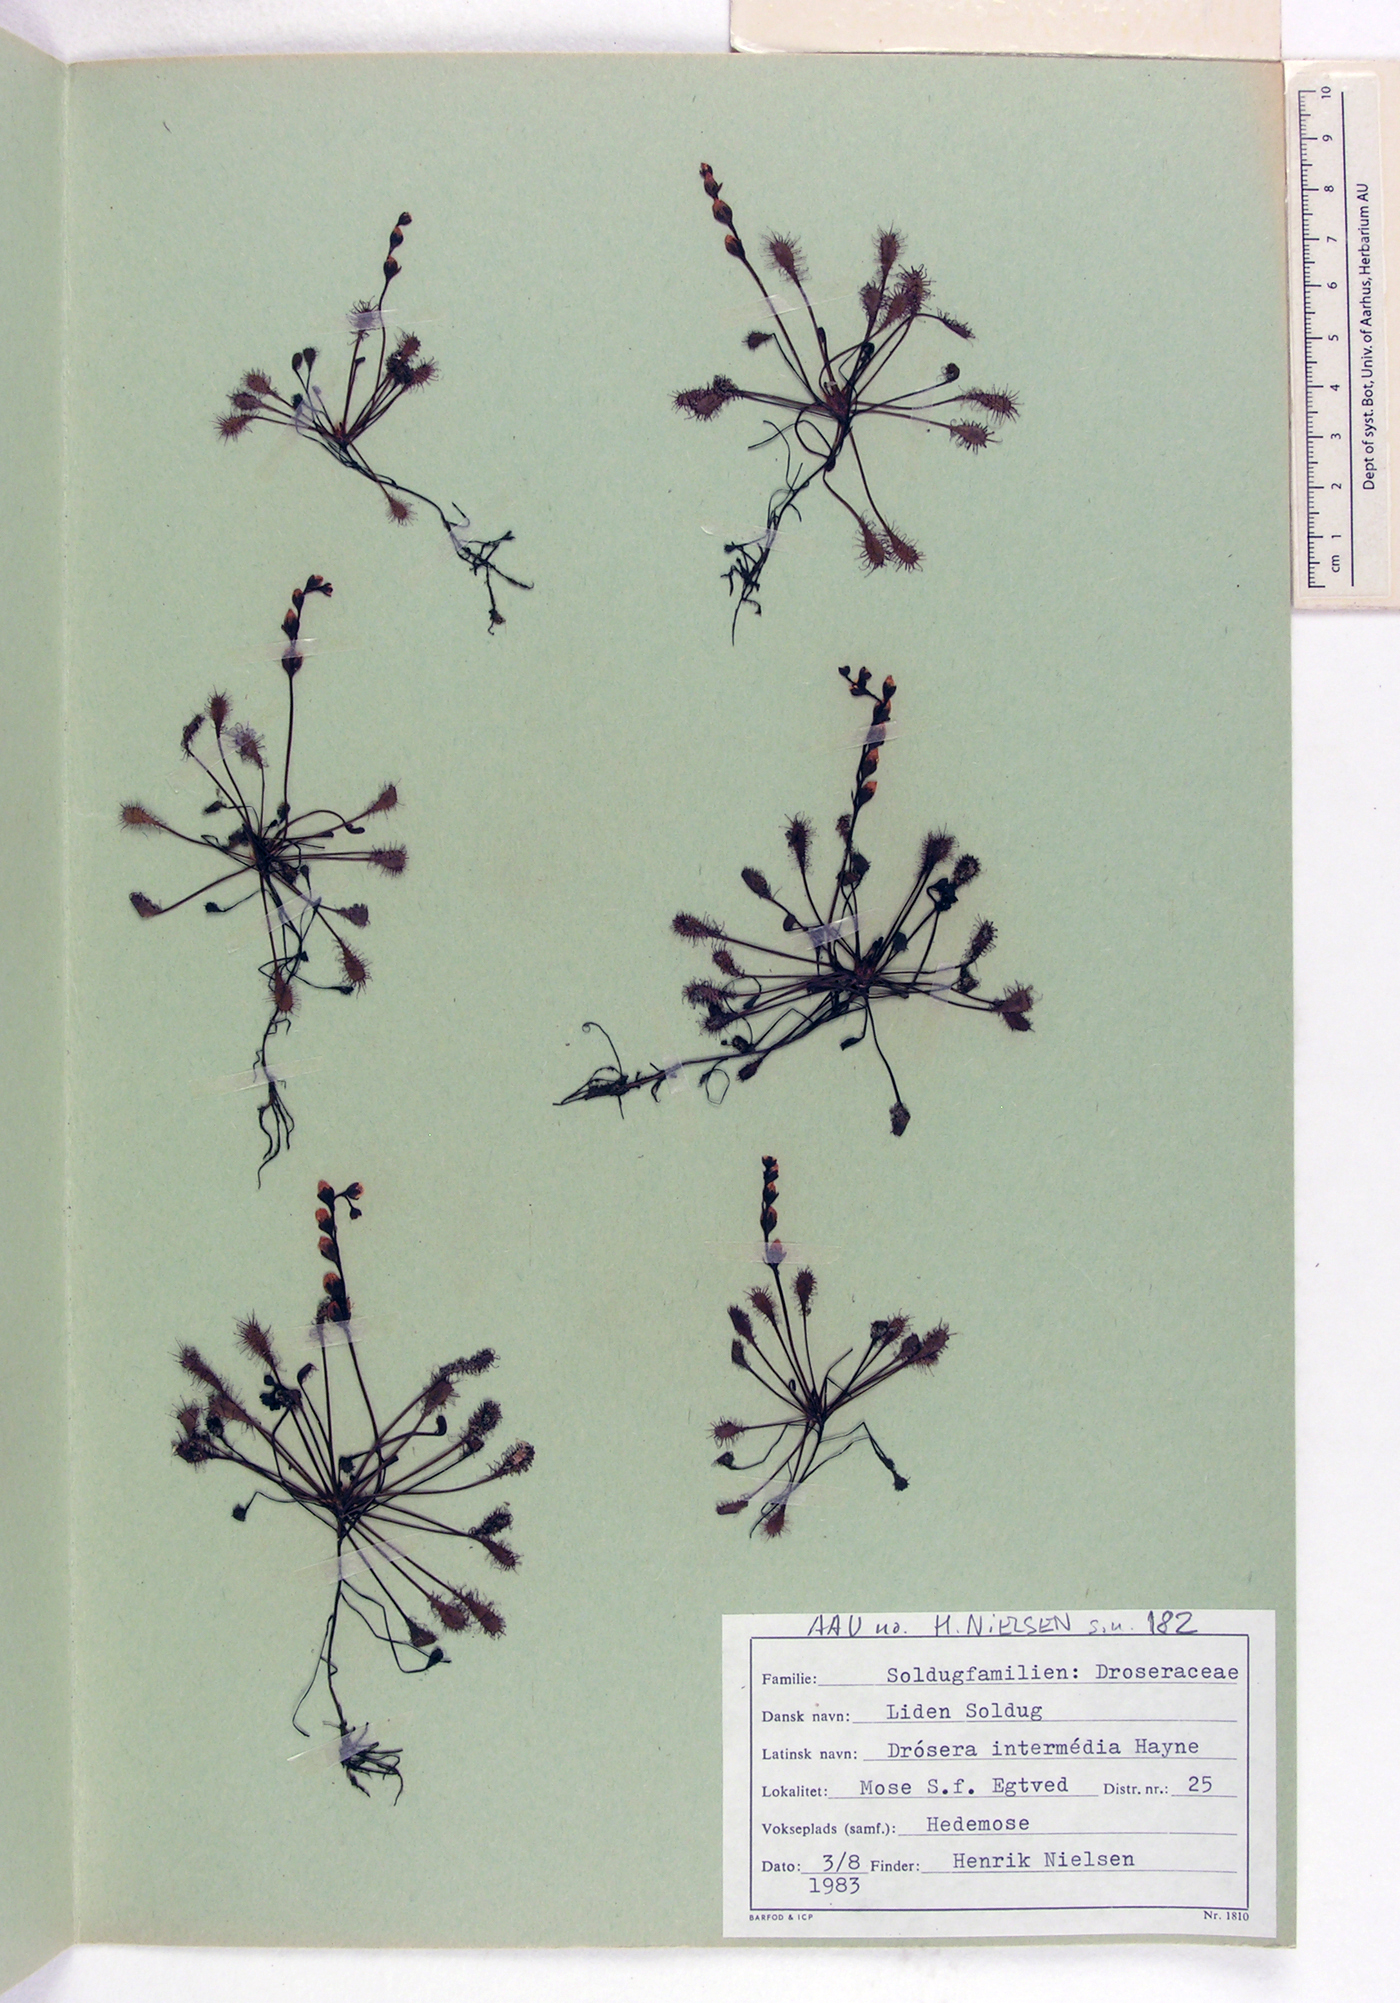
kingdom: Plantae
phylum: Tracheophyta
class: Magnoliopsida
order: Caryophyllales
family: Droseraceae
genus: Drosera
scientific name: Drosera intermedia
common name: Oblong-leaved sundew
